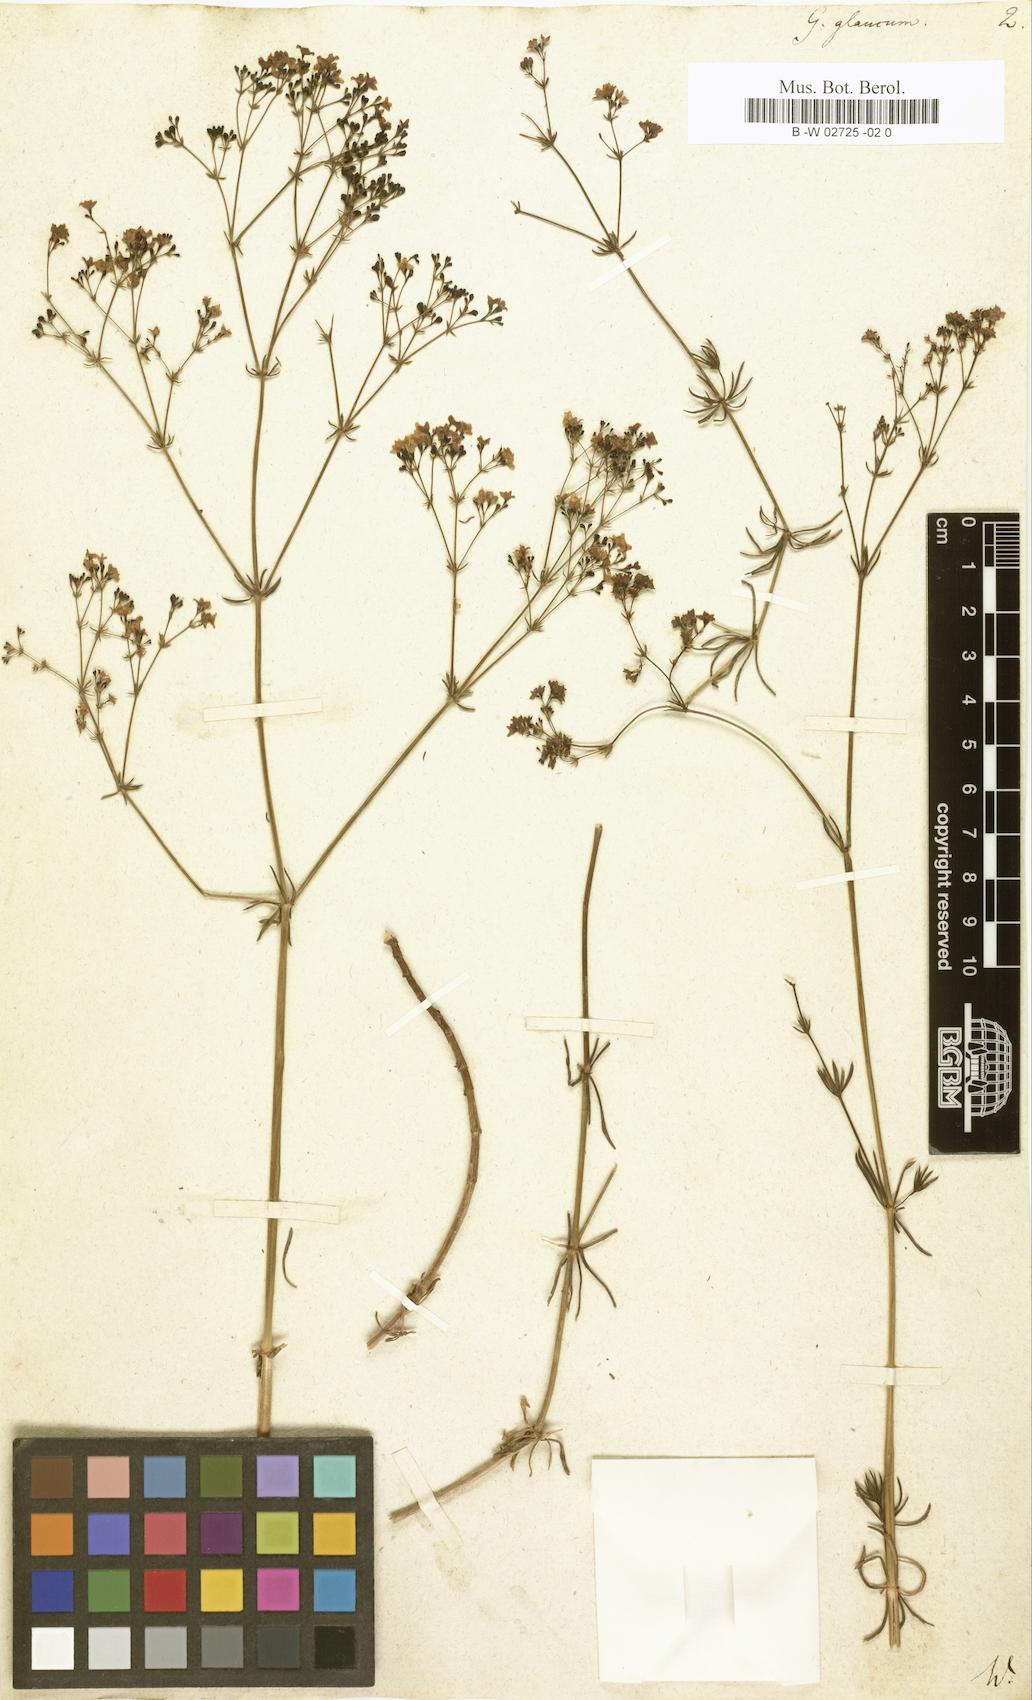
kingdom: Plantae
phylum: Tracheophyta
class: Magnoliopsida
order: Gentianales
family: Rubiaceae
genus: Galium
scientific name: Galium glaucum
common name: Waxy bedstraw
